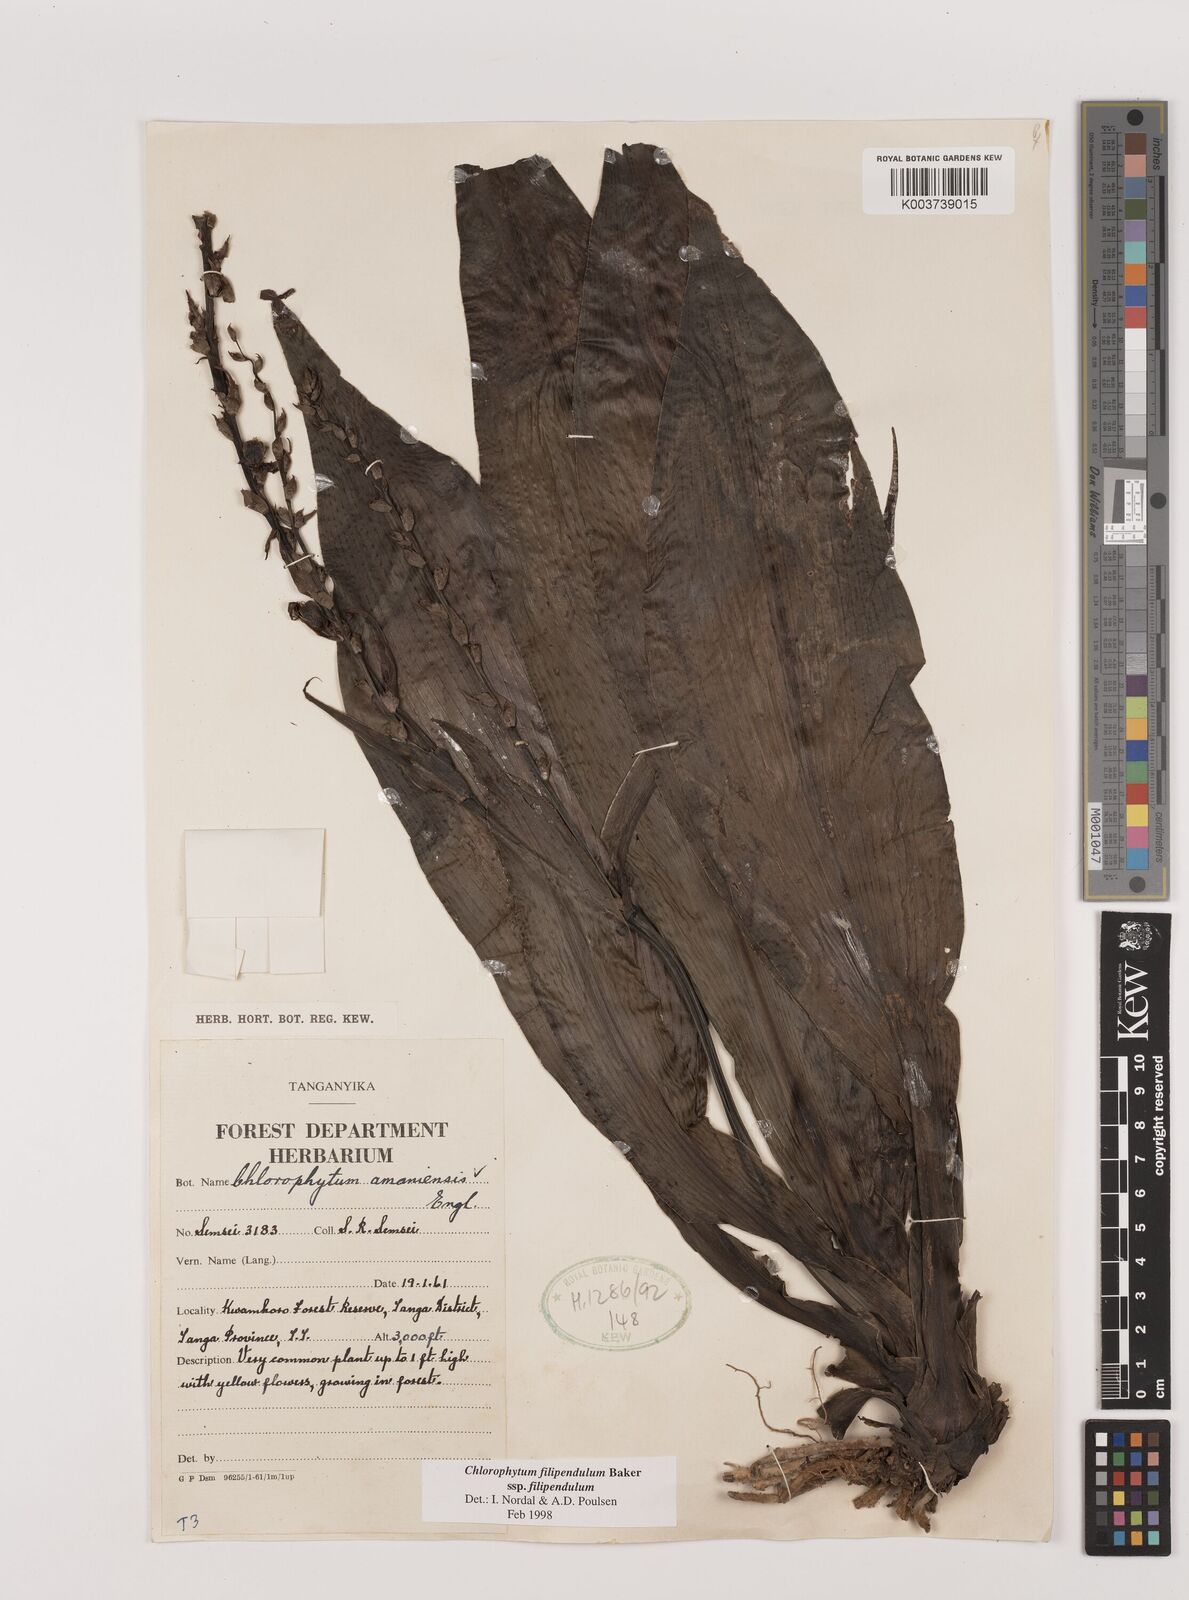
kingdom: Plantae
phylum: Tracheophyta
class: Liliopsida
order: Asparagales
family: Asparagaceae
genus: Chlorophytum
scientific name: Chlorophytum filipendulum
